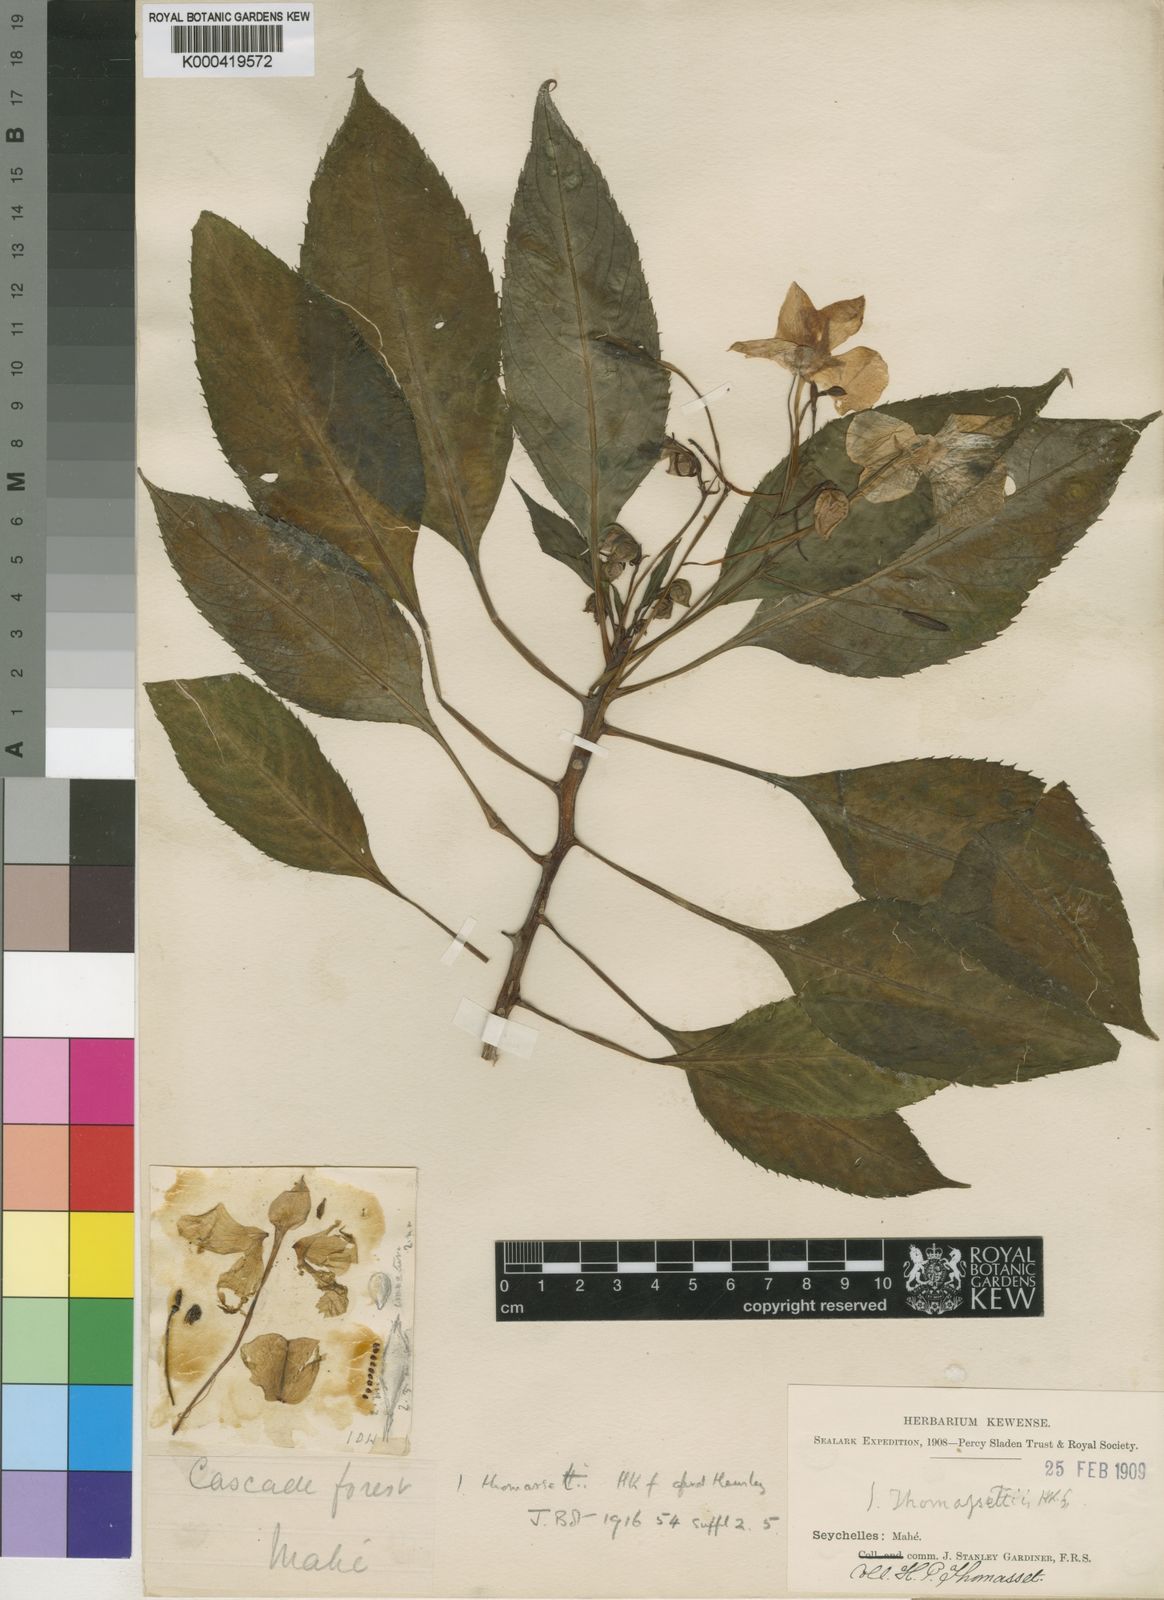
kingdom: Plantae
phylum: Tracheophyta
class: Magnoliopsida
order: Ericales
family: Balsaminaceae
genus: Impatiens
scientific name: Impatiens gordonii
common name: Seychelles bizzie lizzie
